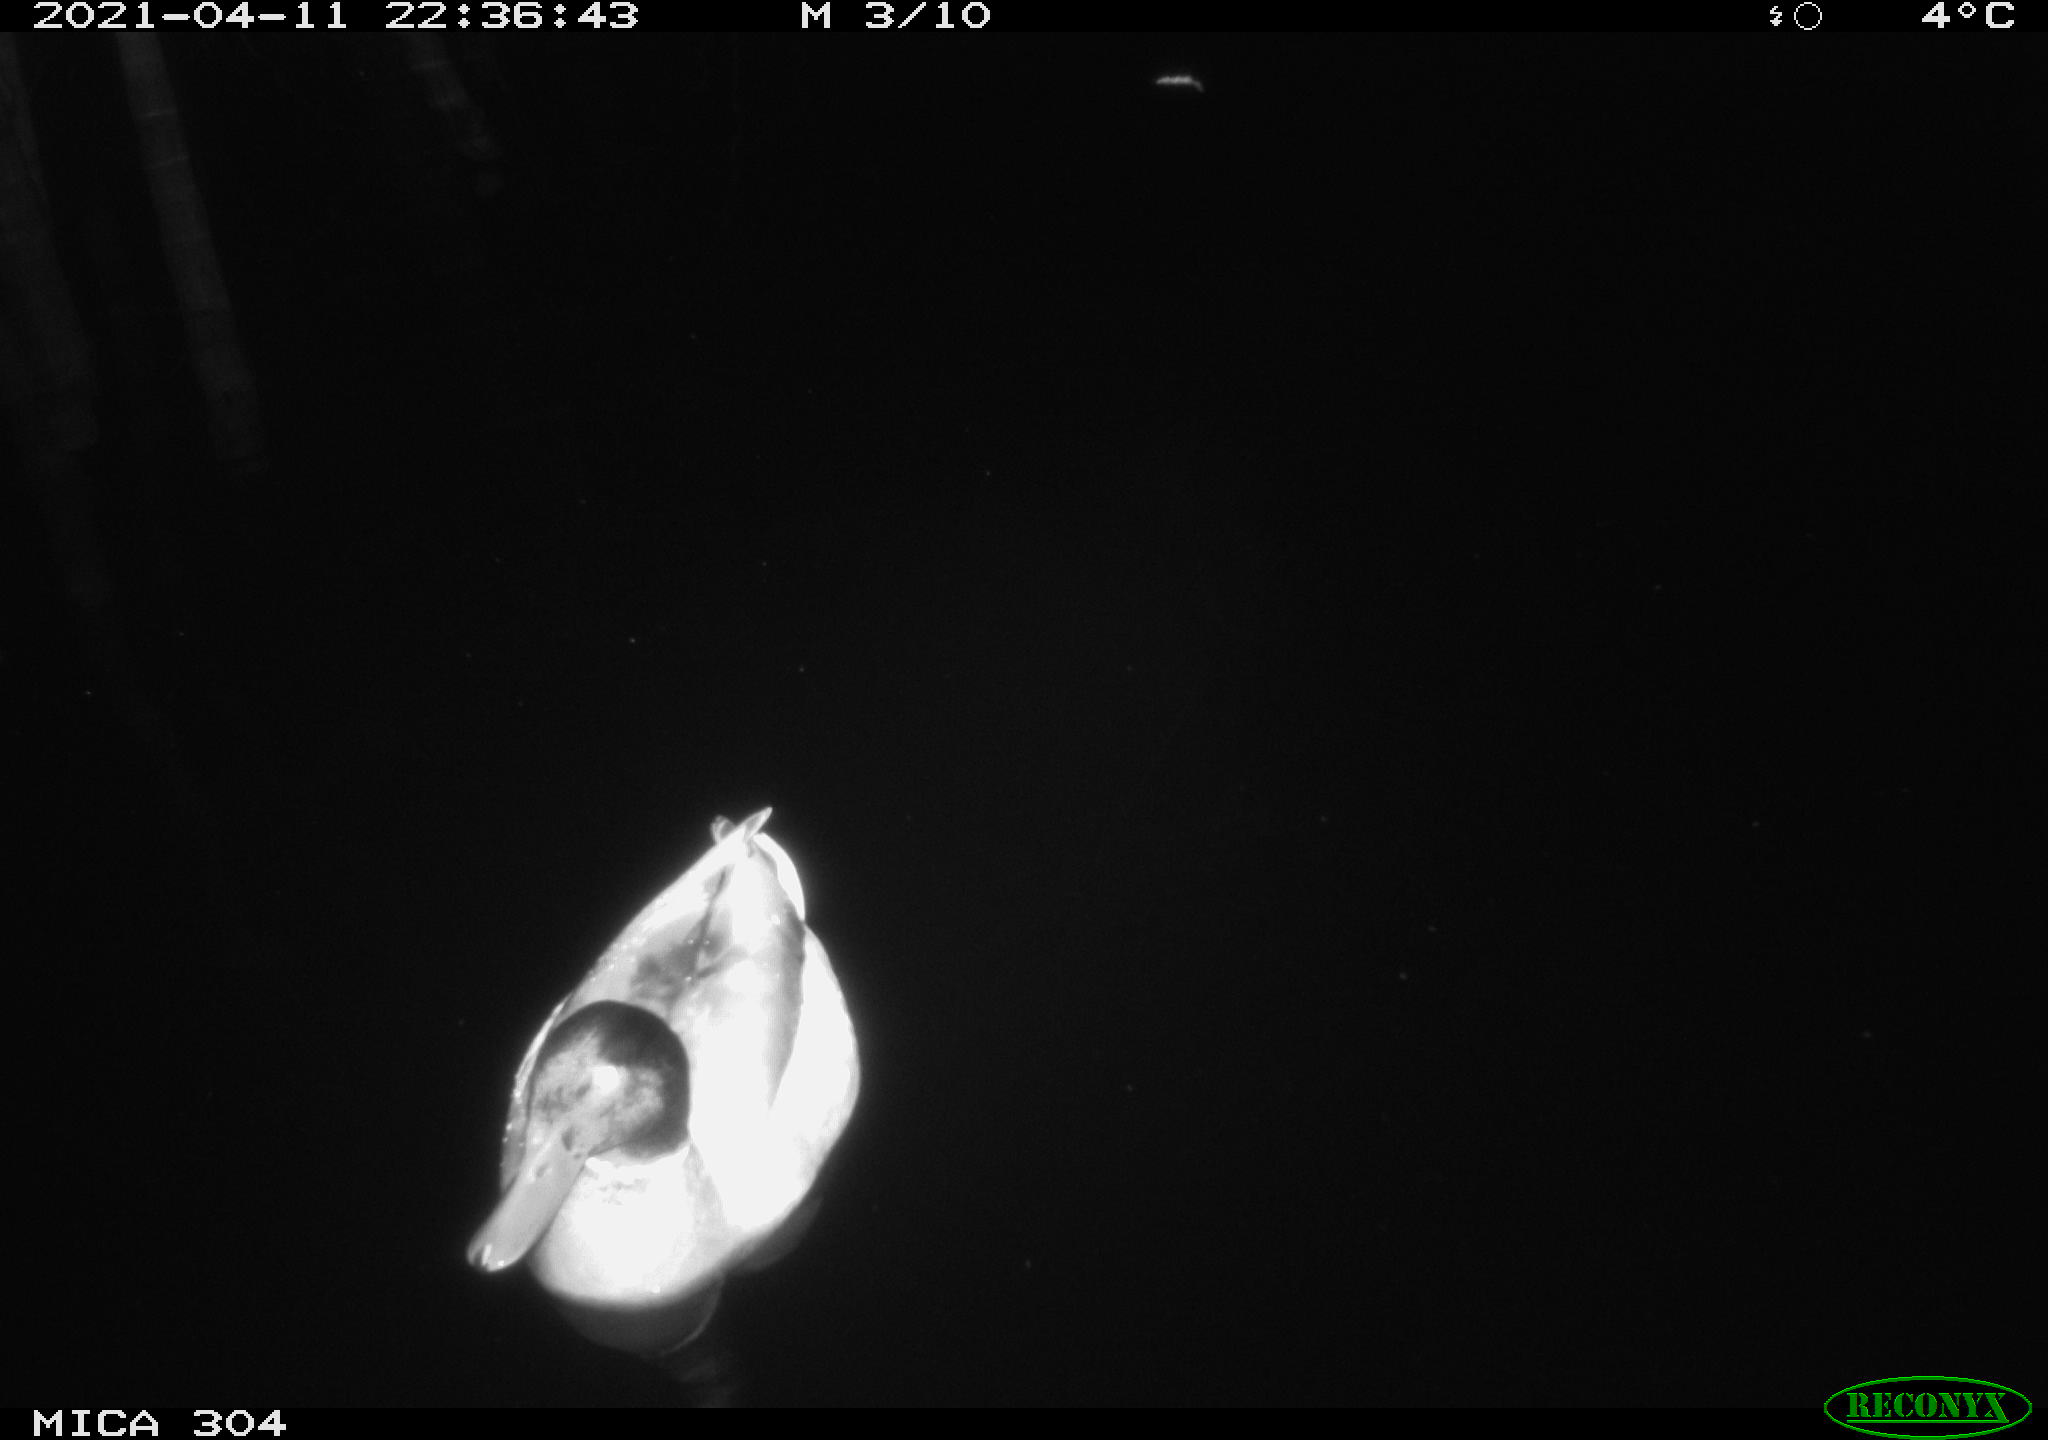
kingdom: Animalia
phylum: Chordata
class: Aves
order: Anseriformes
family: Anatidae
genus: Anas
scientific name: Anas
